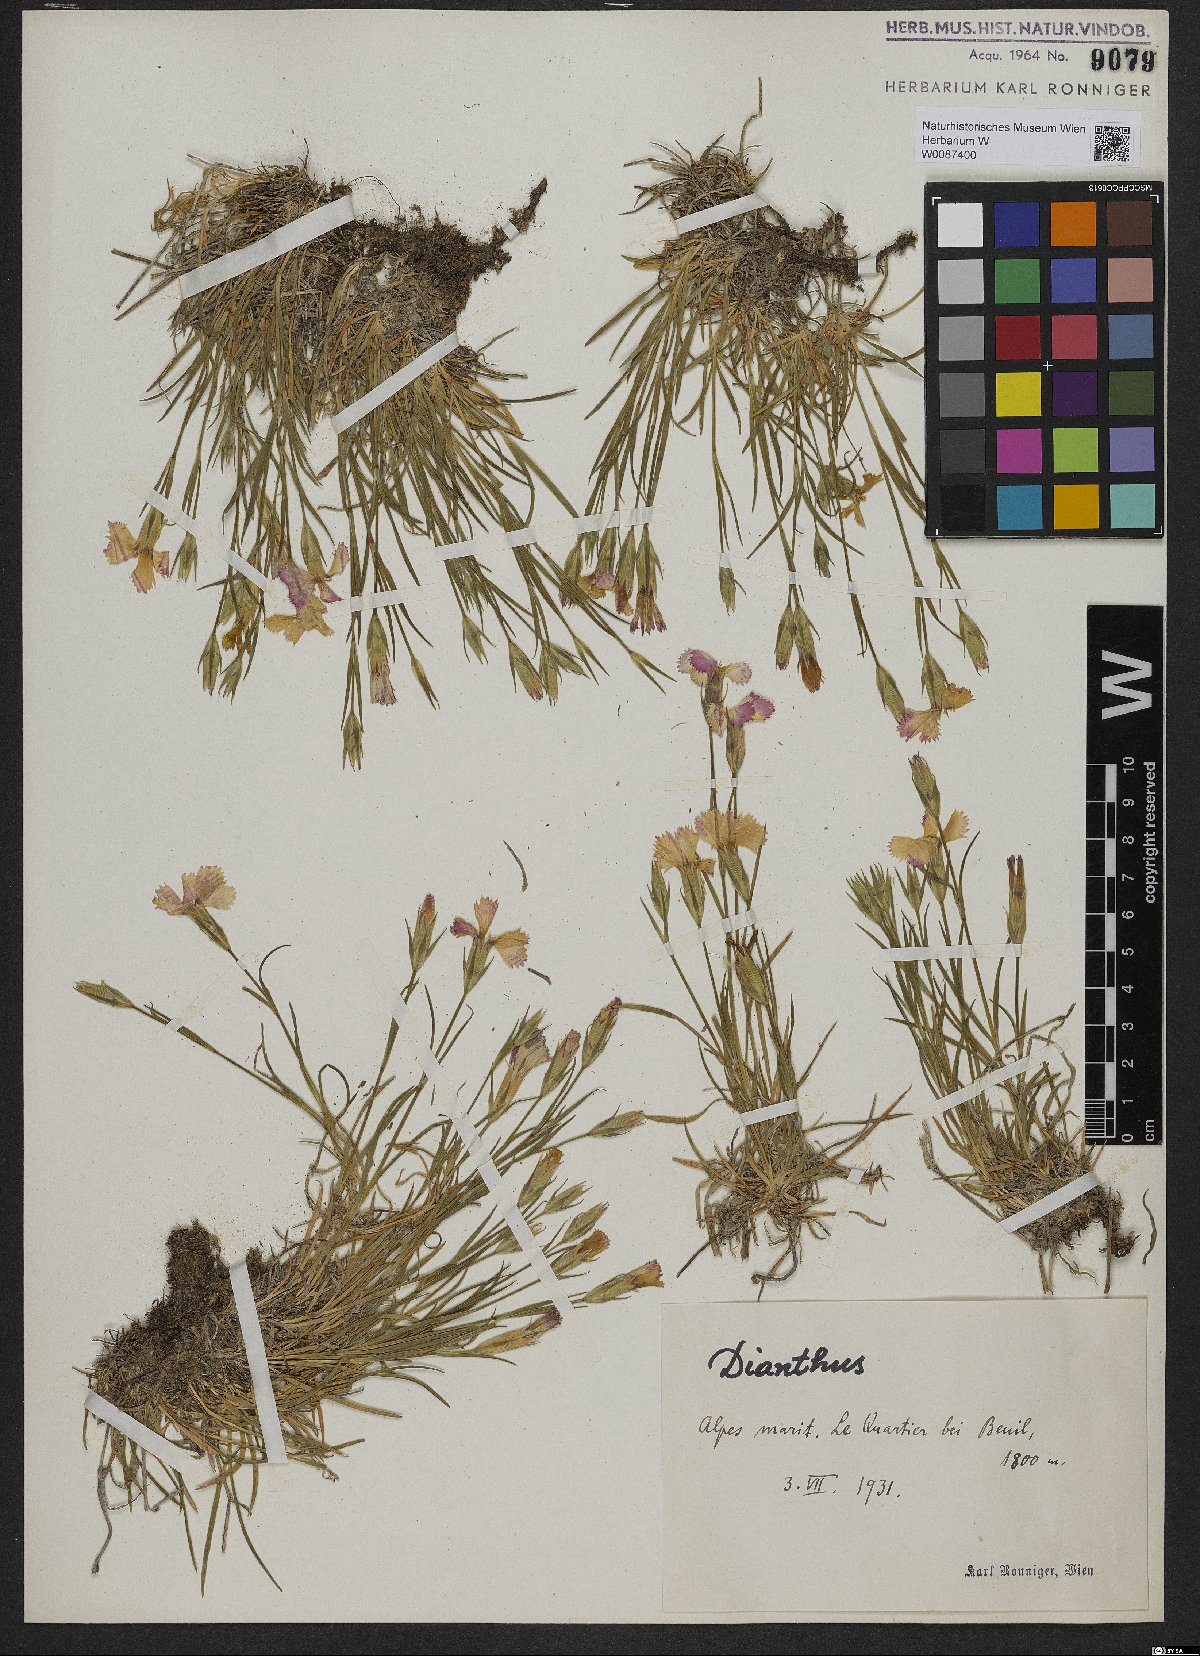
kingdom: Plantae
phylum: Tracheophyta
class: Magnoliopsida
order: Caryophyllales
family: Caryophyllaceae
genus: Dianthus
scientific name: Dianthus
